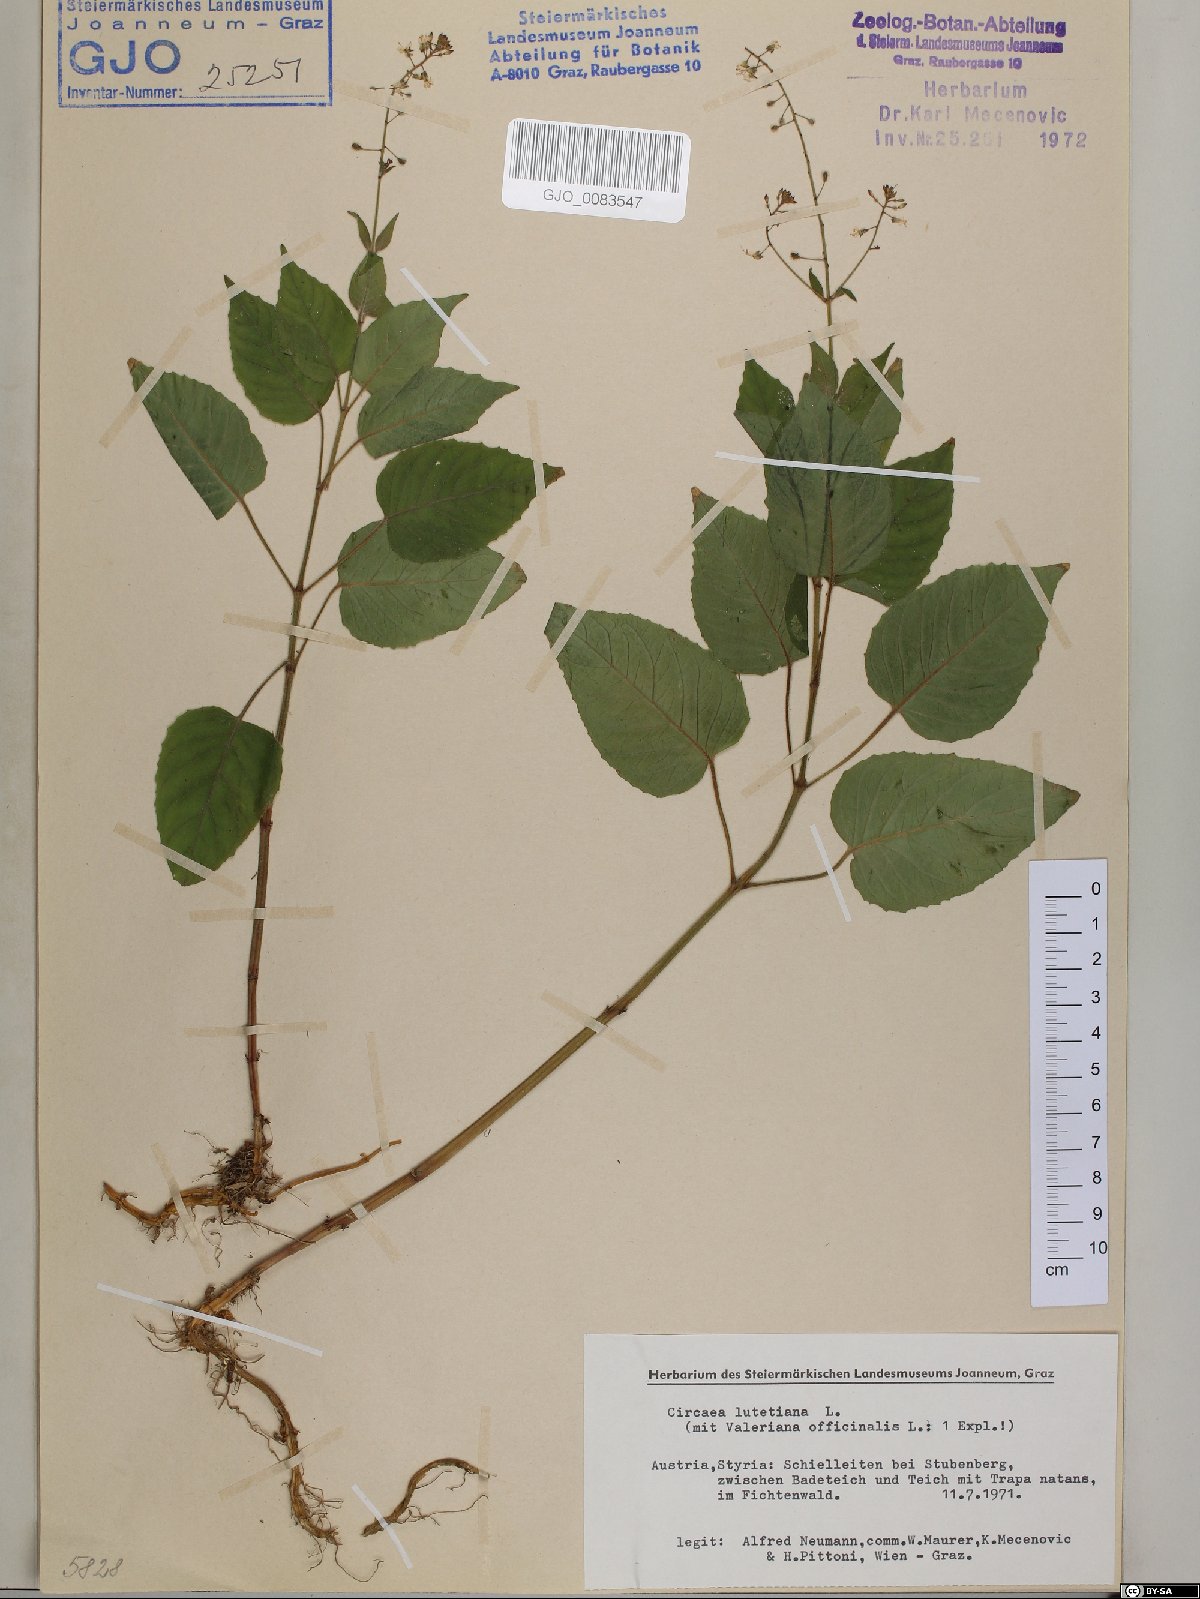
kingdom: Plantae
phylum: Tracheophyta
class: Magnoliopsida
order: Myrtales
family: Onagraceae
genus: Circaea
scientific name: Circaea lutetiana
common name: Enchanter's-nightshade
